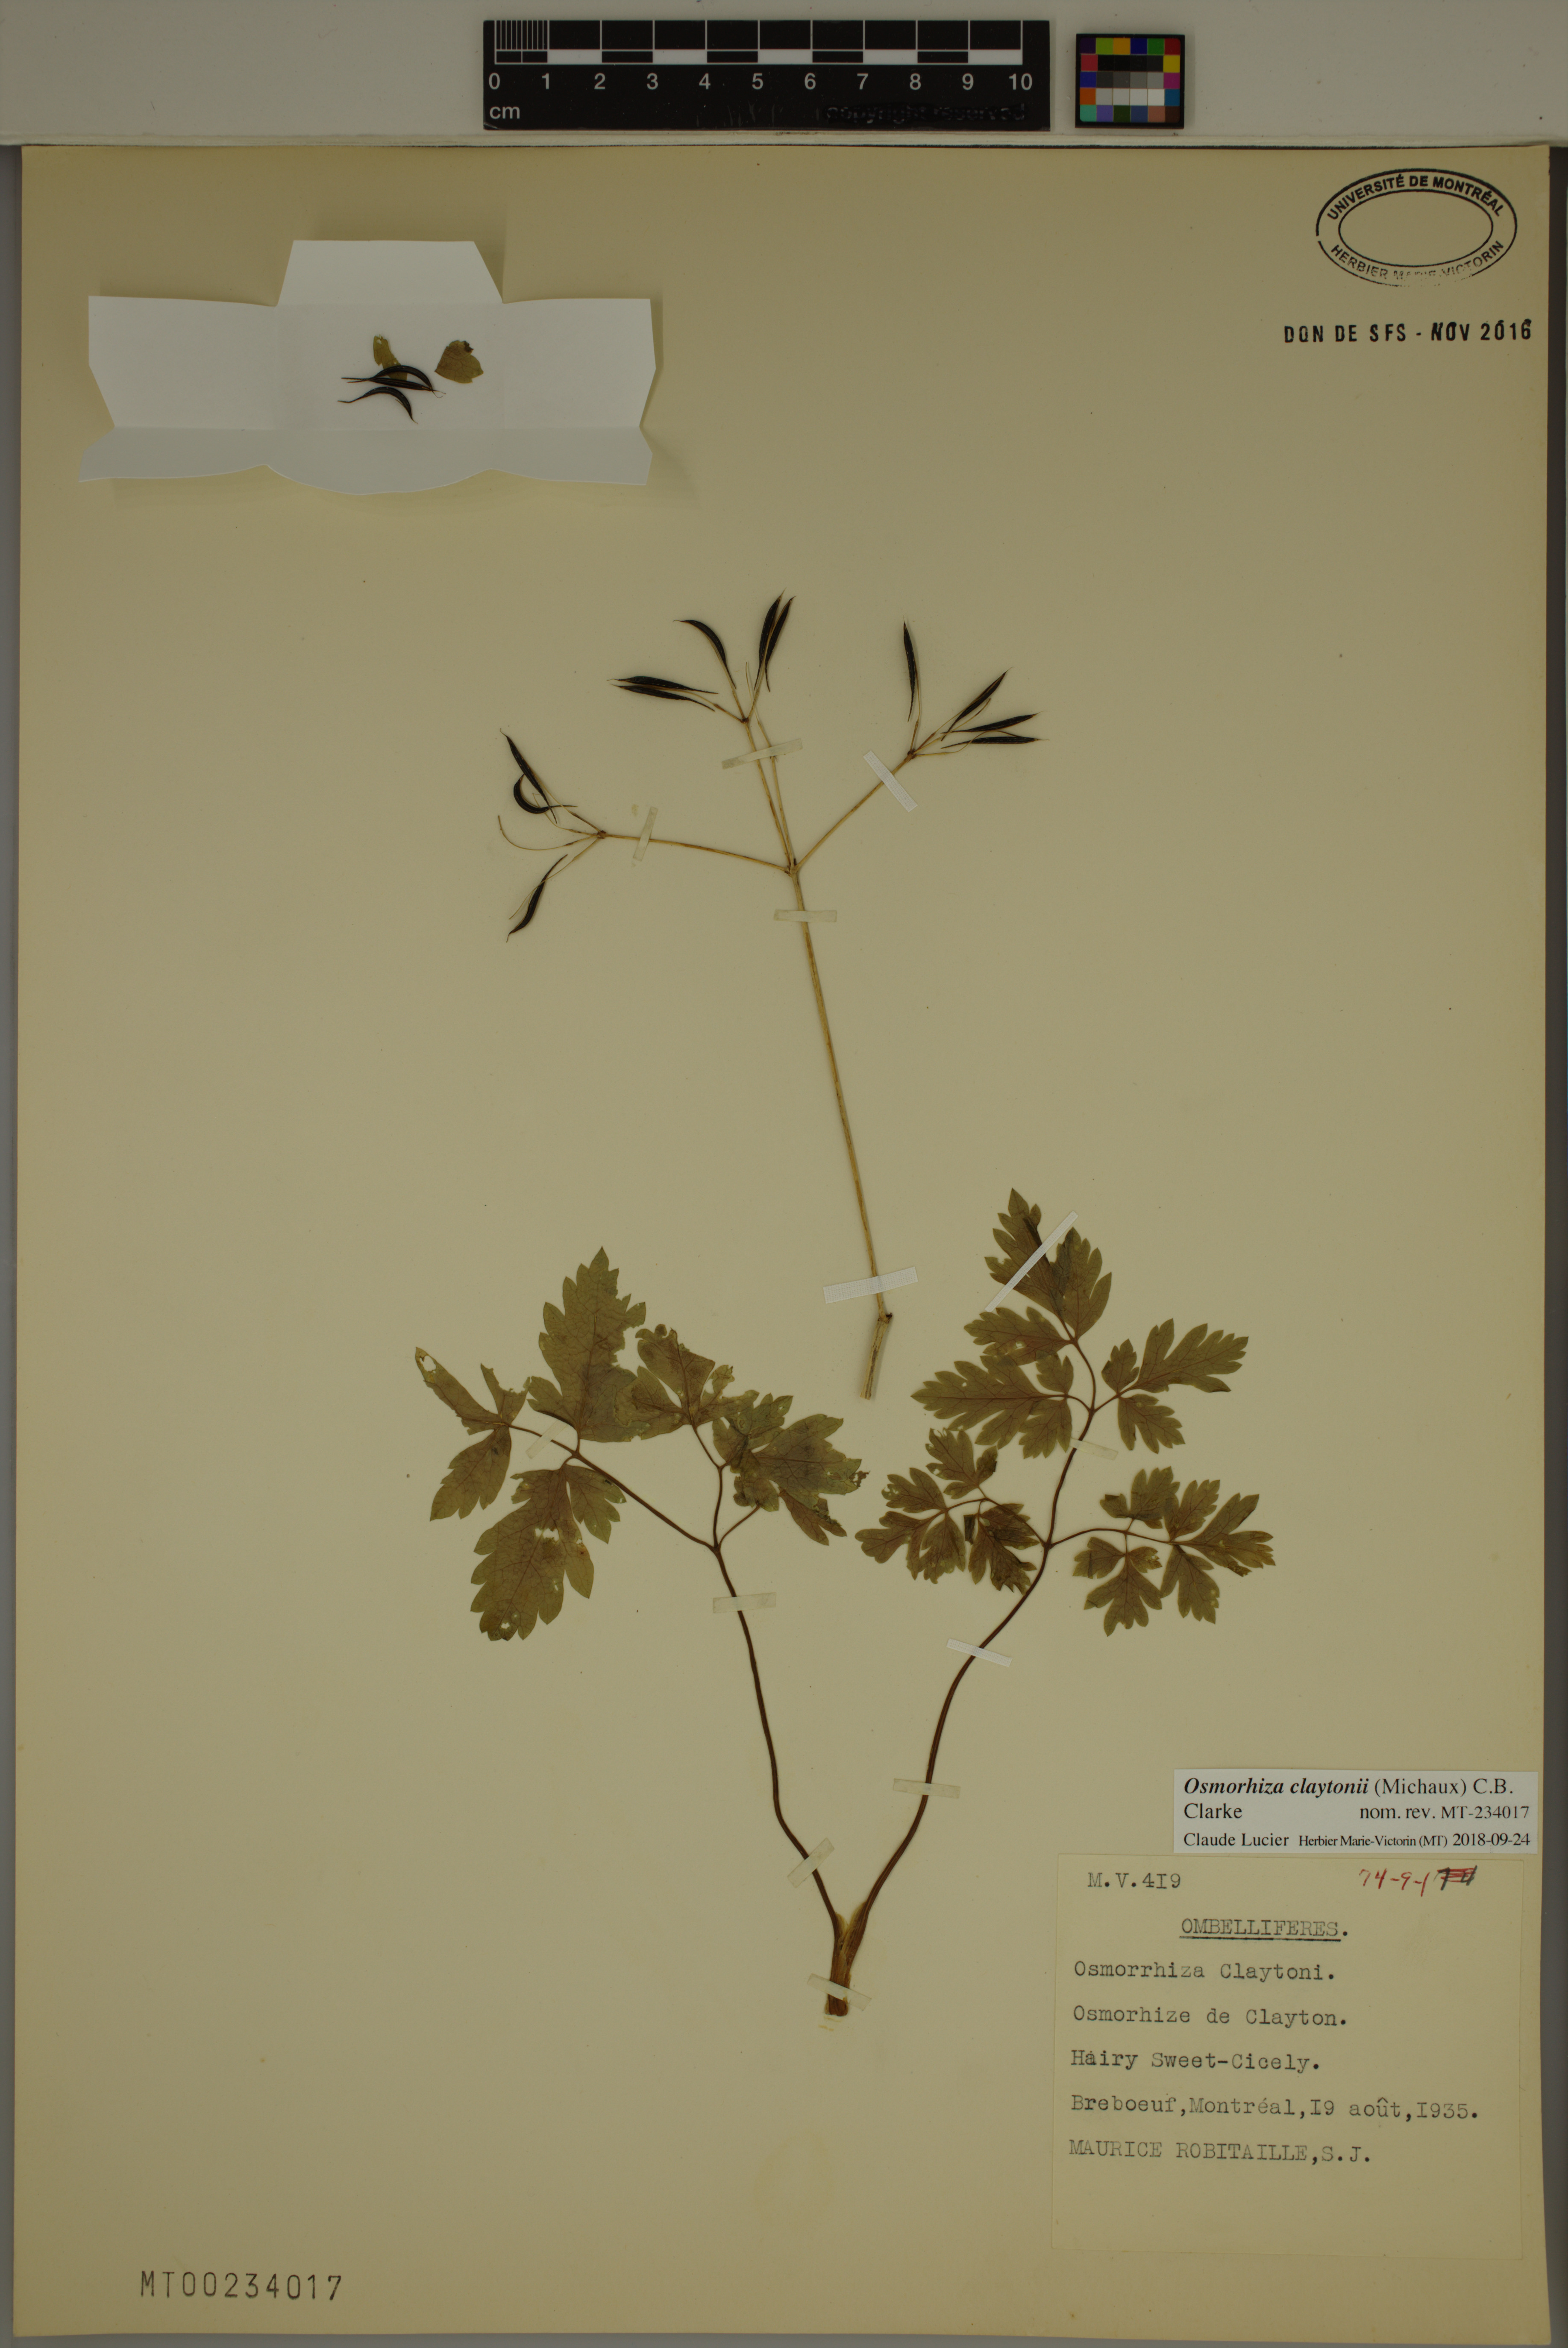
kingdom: Plantae
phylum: Tracheophyta
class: Magnoliopsida
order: Apiales
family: Apiaceae
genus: Osmorhiza
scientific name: Osmorhiza claytonii
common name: Hairy sweet cicely
